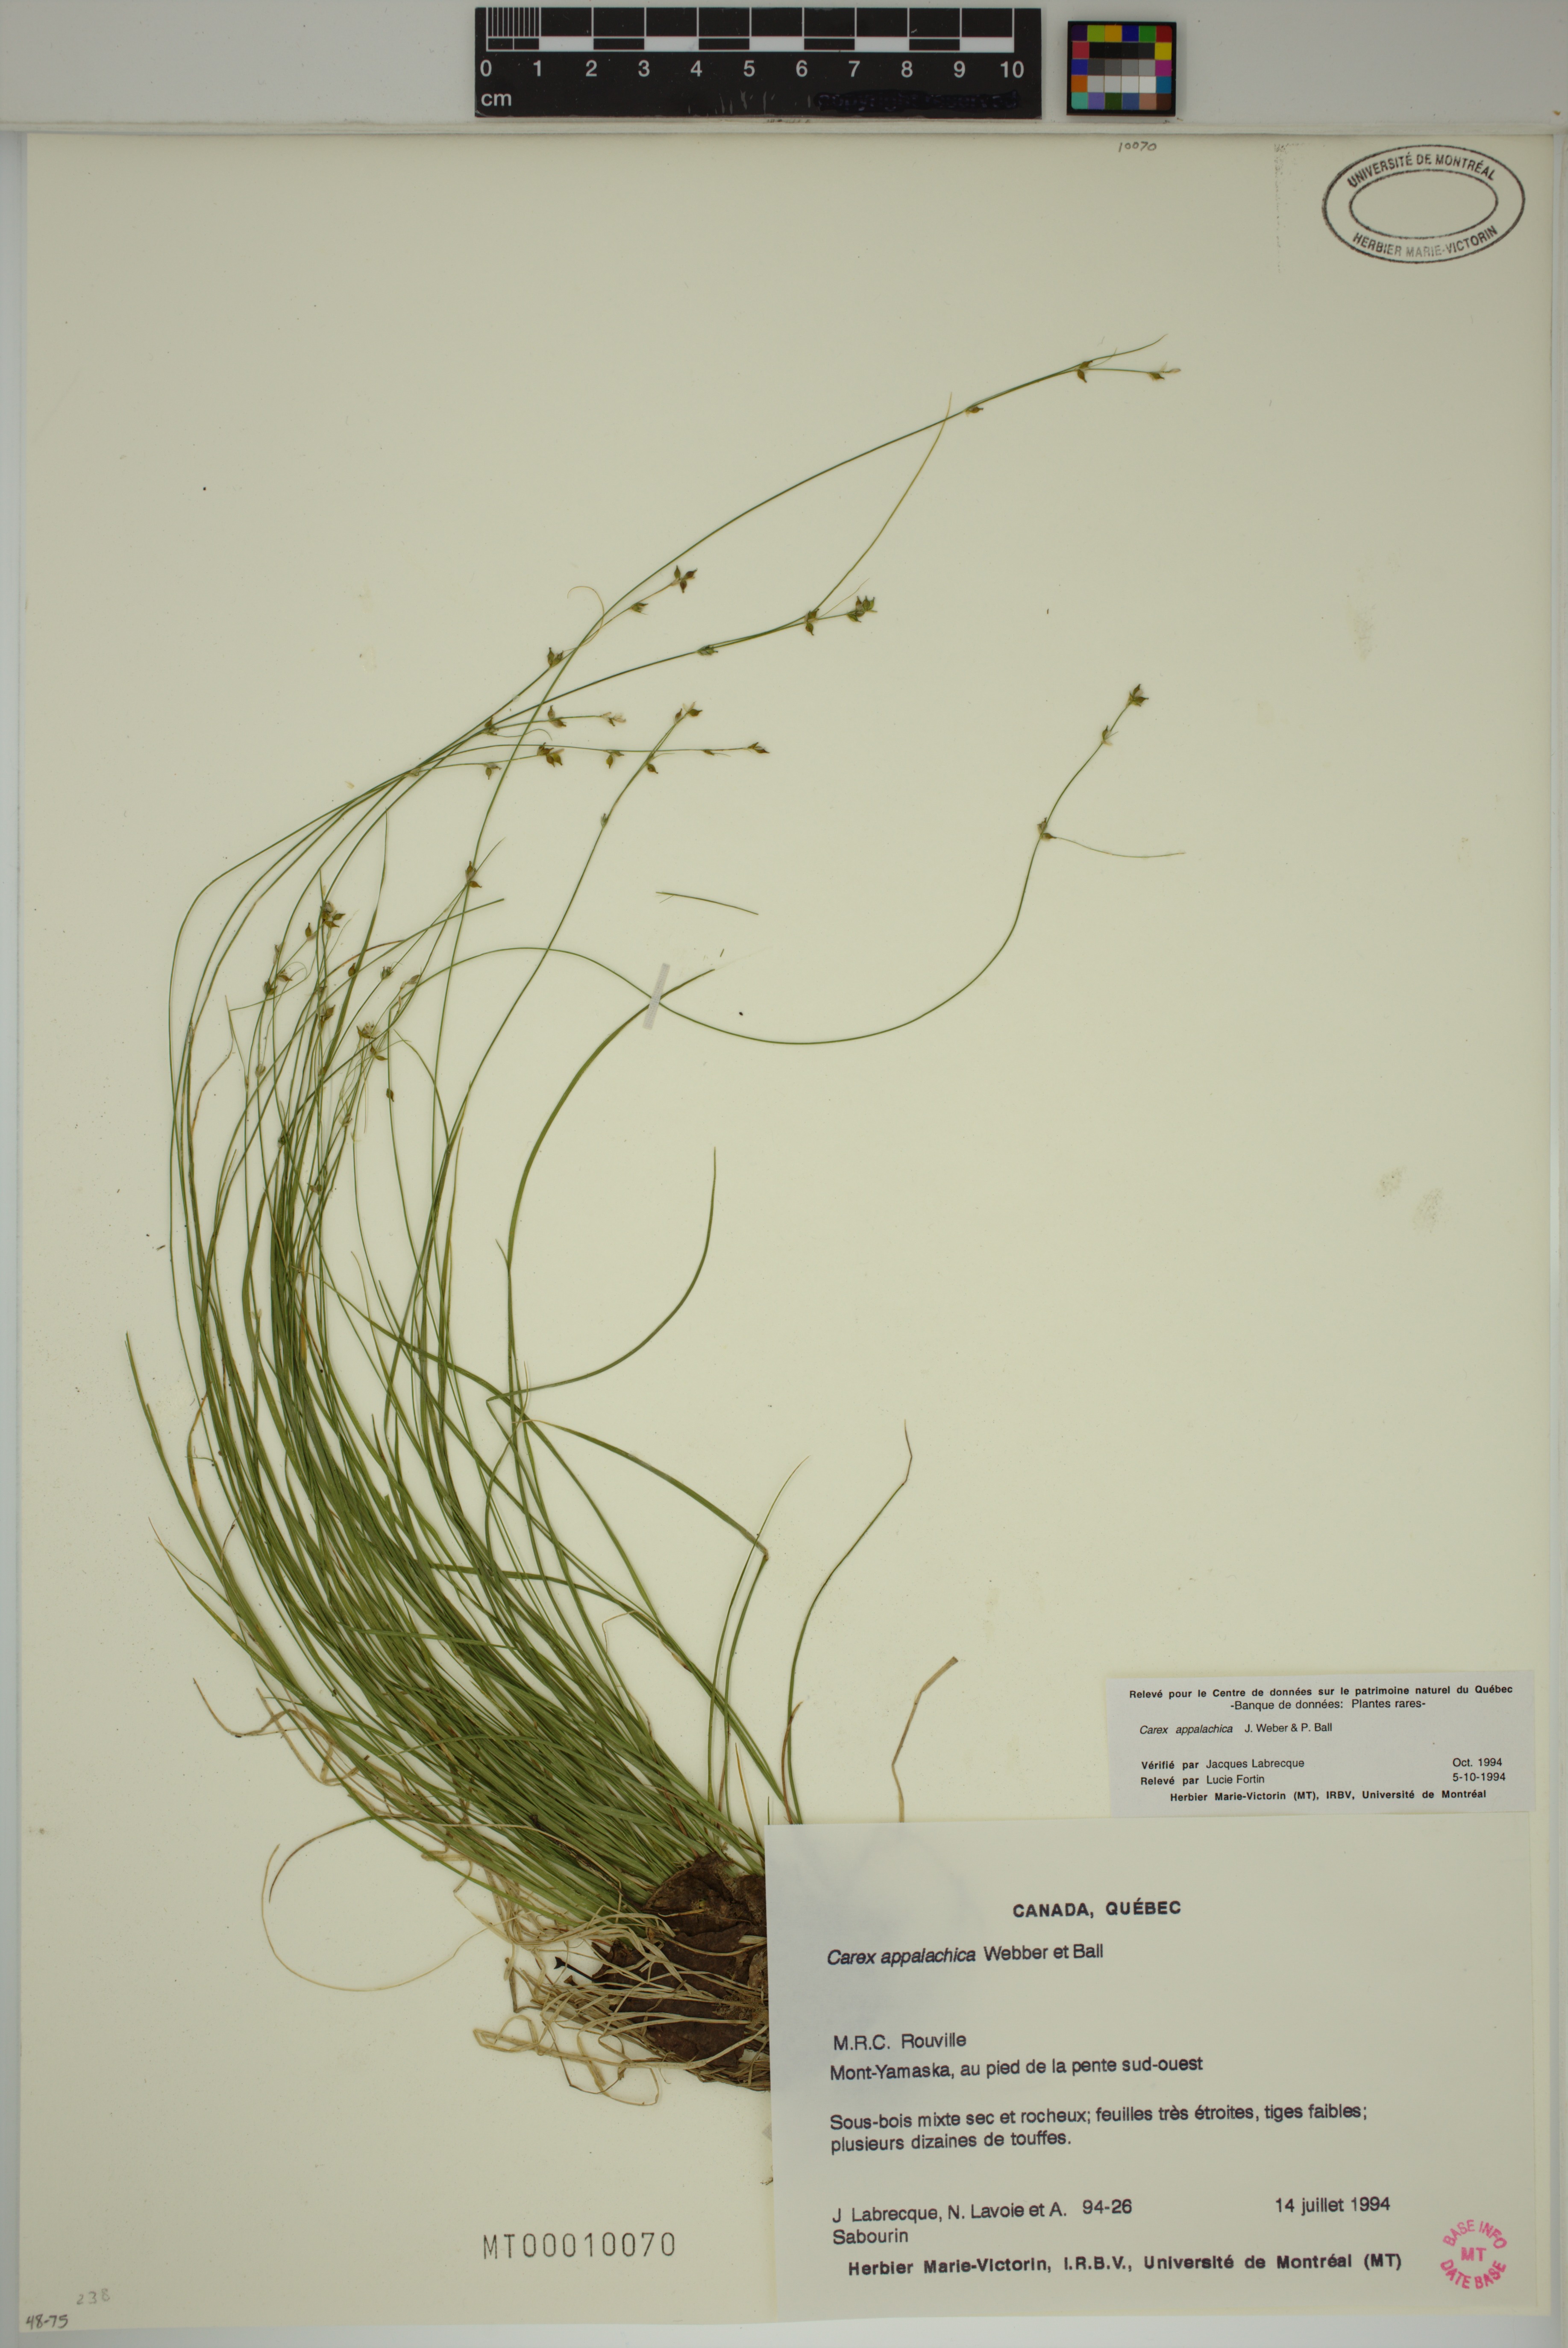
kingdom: Plantae
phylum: Tracheophyta
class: Liliopsida
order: Poales
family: Cyperaceae
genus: Carex
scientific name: Carex appalachica
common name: Appalachian sedge
